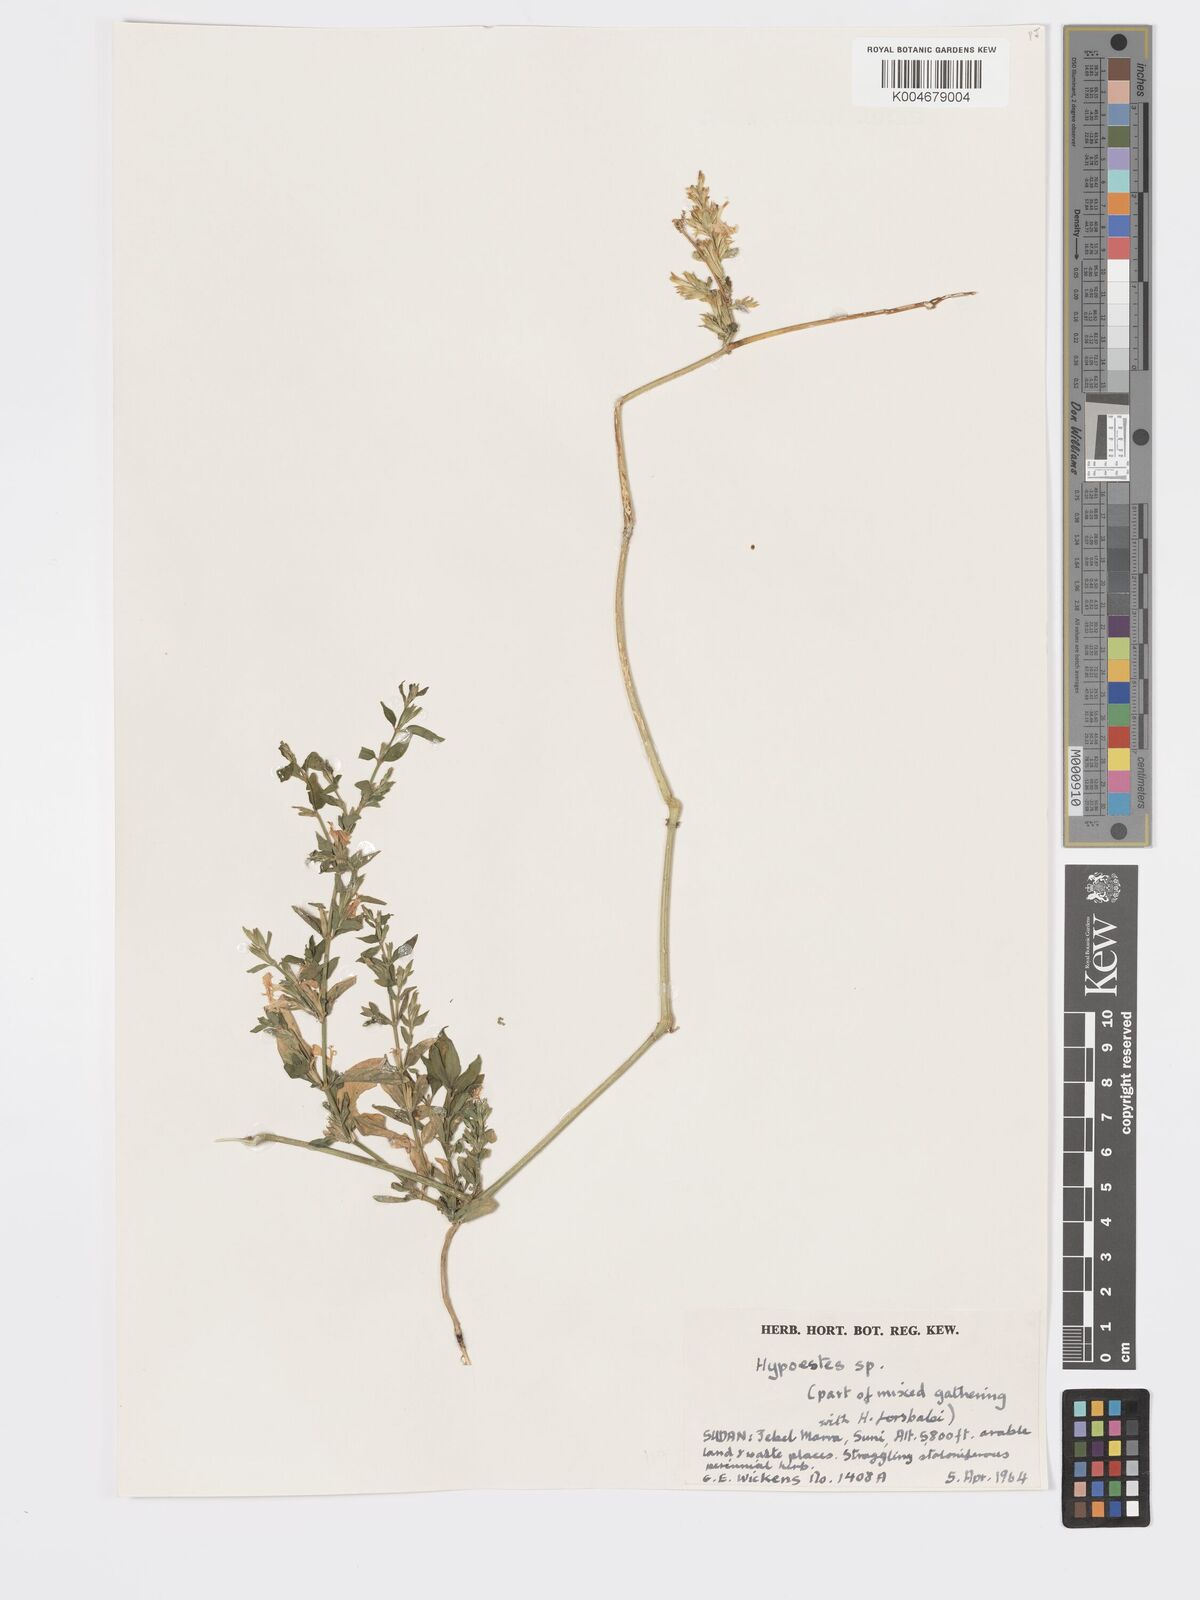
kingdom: Plantae
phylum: Tracheophyta
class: Magnoliopsida
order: Lamiales
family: Acanthaceae
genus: Hypoestes
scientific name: Hypoestes forskaolii
